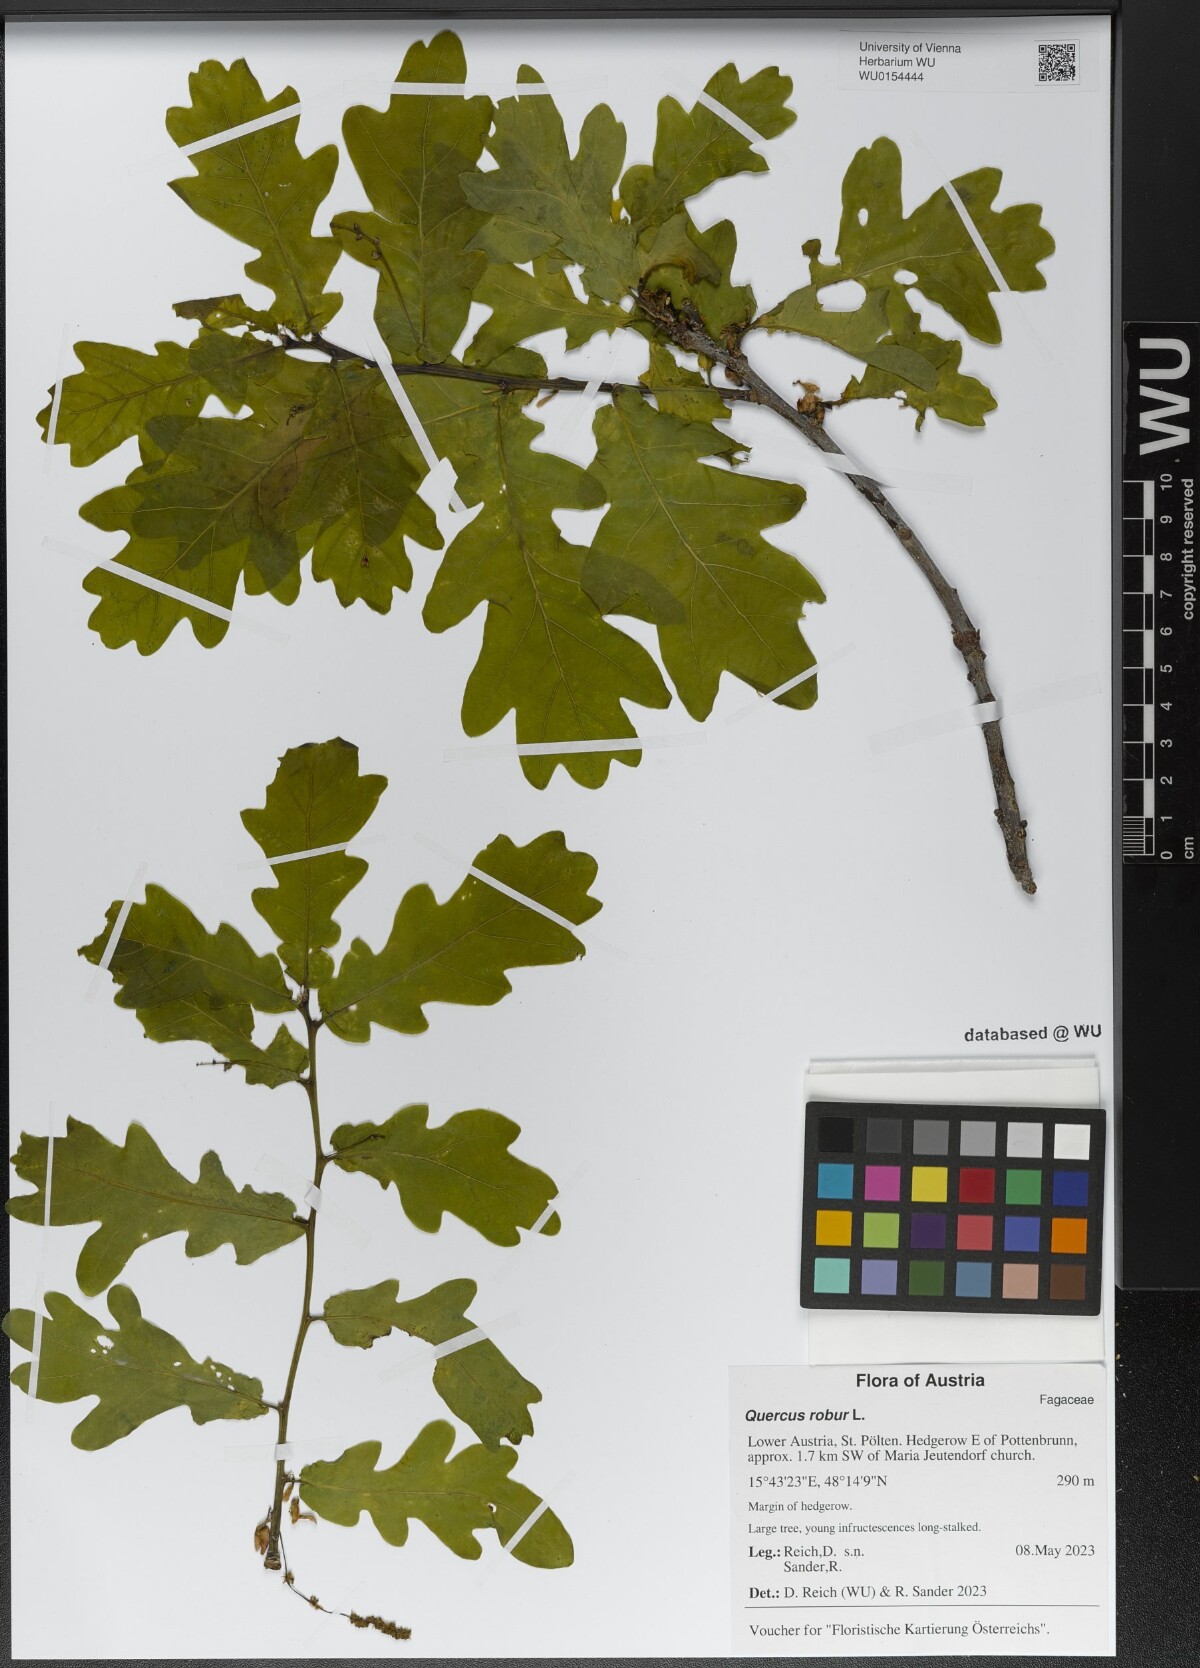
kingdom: Plantae
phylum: Tracheophyta
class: Magnoliopsida
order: Fagales
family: Fagaceae
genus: Quercus
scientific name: Quercus robur
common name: Pedunculate oak
